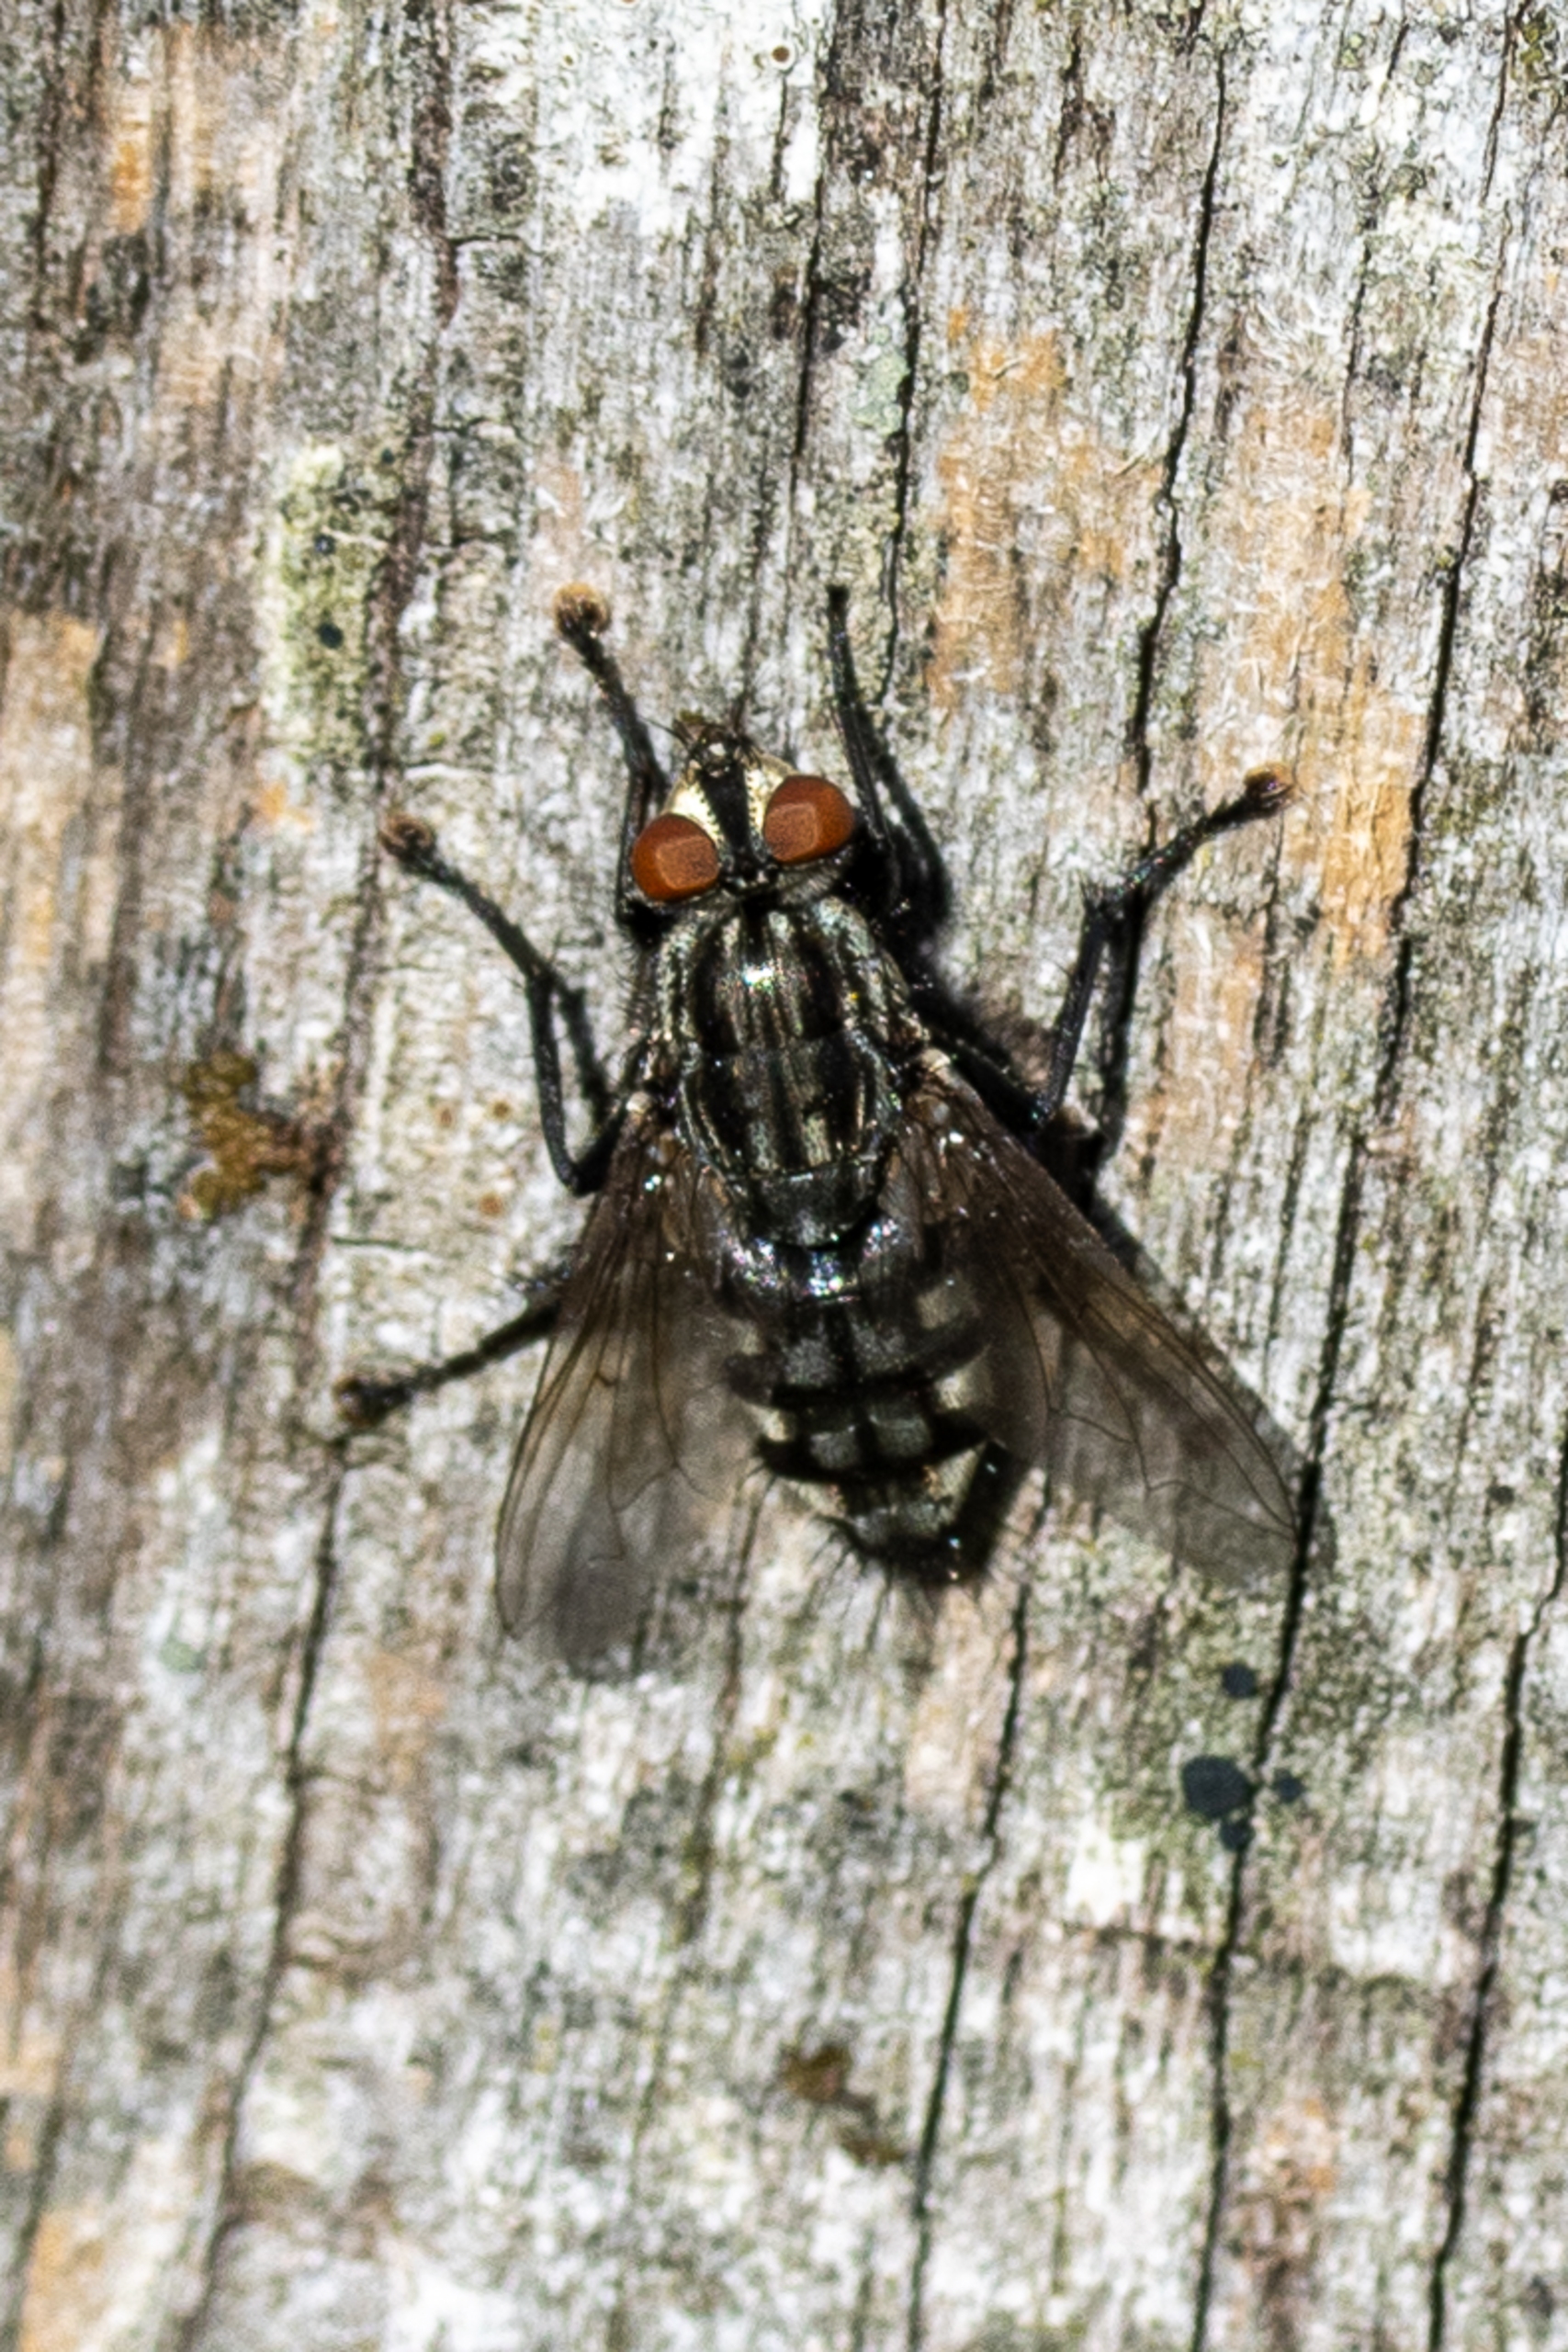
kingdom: Animalia
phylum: Arthropoda
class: Insecta
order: Diptera
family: Sarcophagidae
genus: Sarcophaga
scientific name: Sarcophaga
